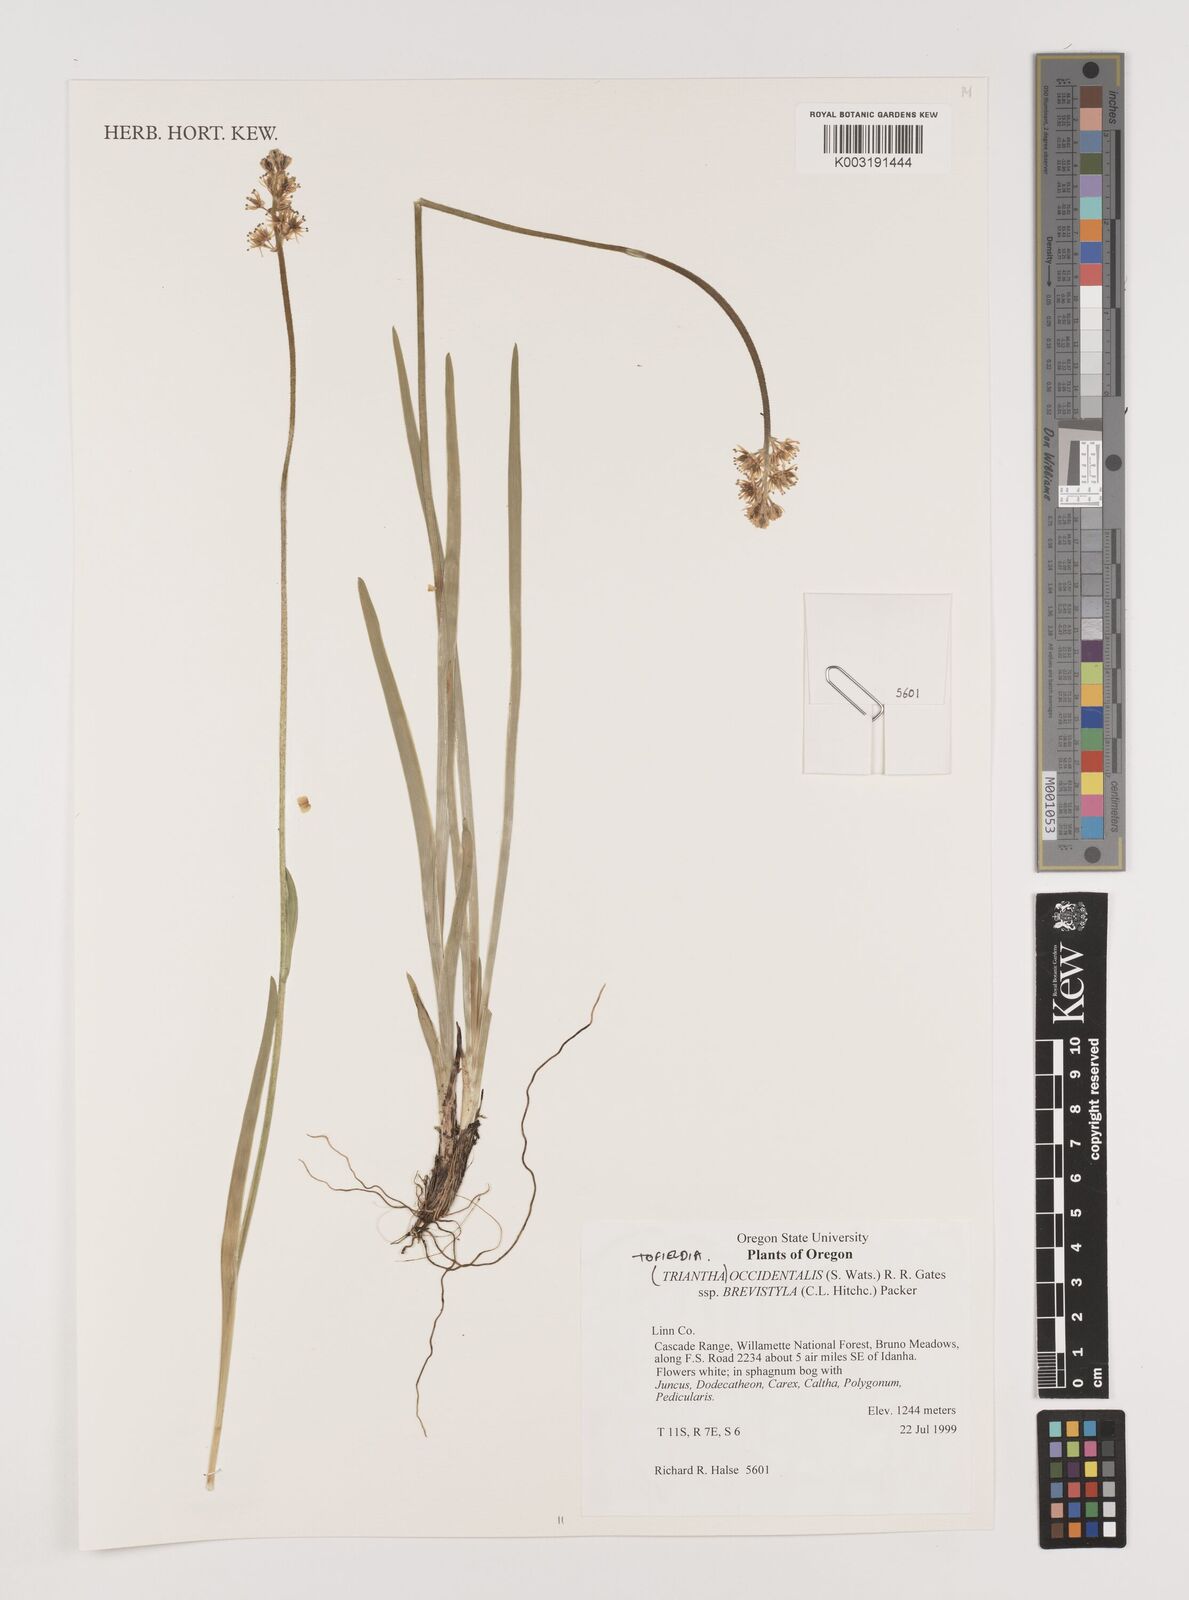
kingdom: Plantae
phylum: Tracheophyta
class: Liliopsida
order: Alismatales
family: Tofieldiaceae
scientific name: Tofieldiaceae
